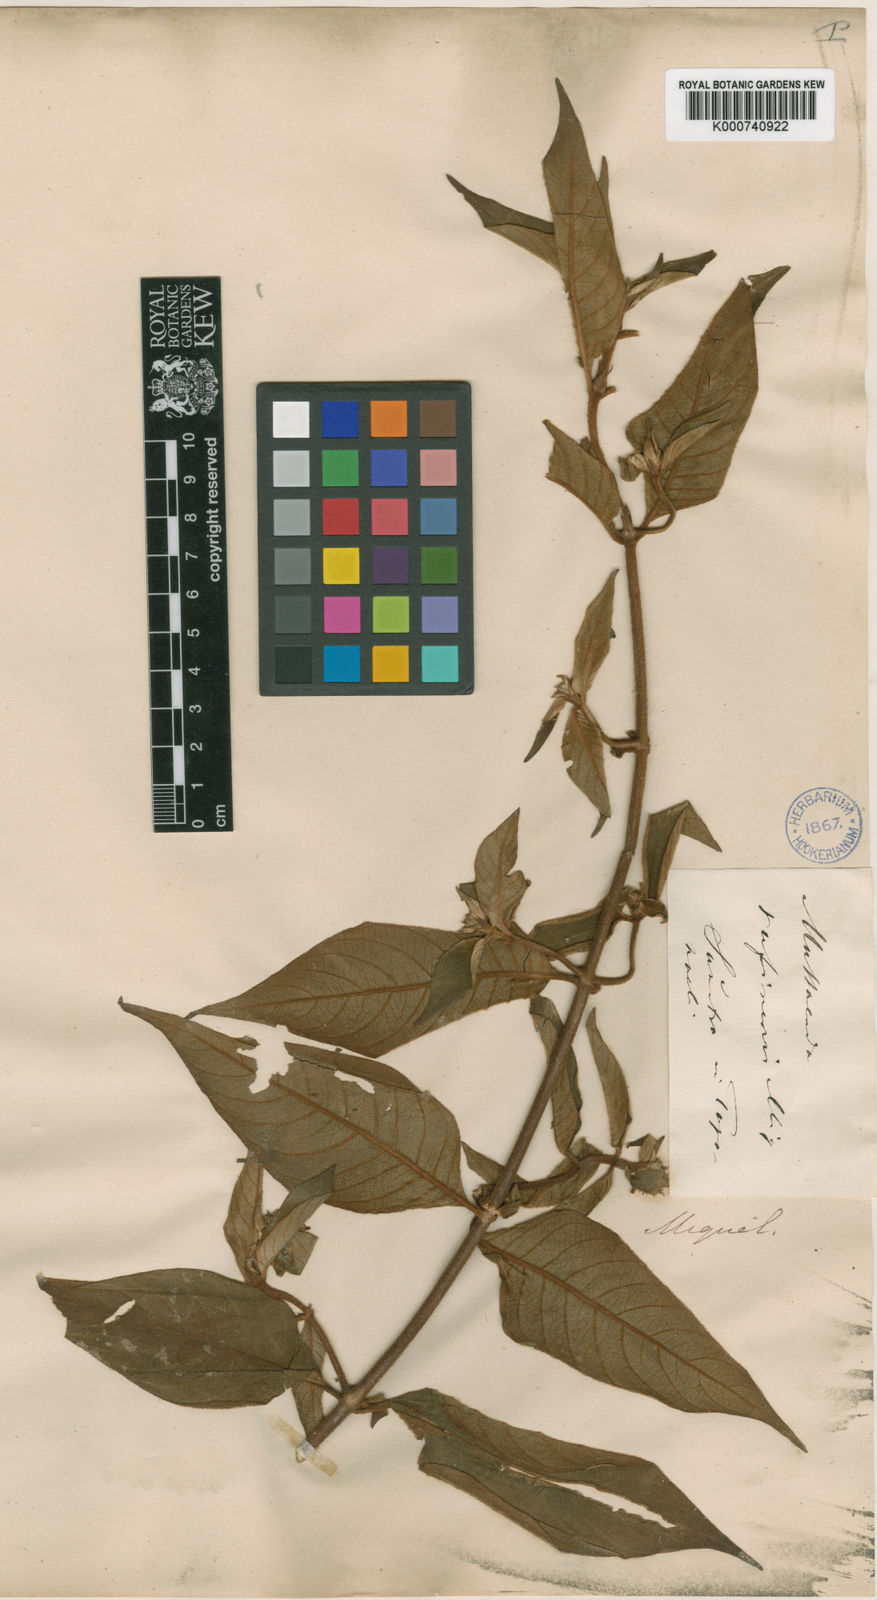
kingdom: Plantae
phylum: Tracheophyta
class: Magnoliopsida
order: Gentianales
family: Rubiaceae
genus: Mussaenda
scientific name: Mussaenda rufinervia
